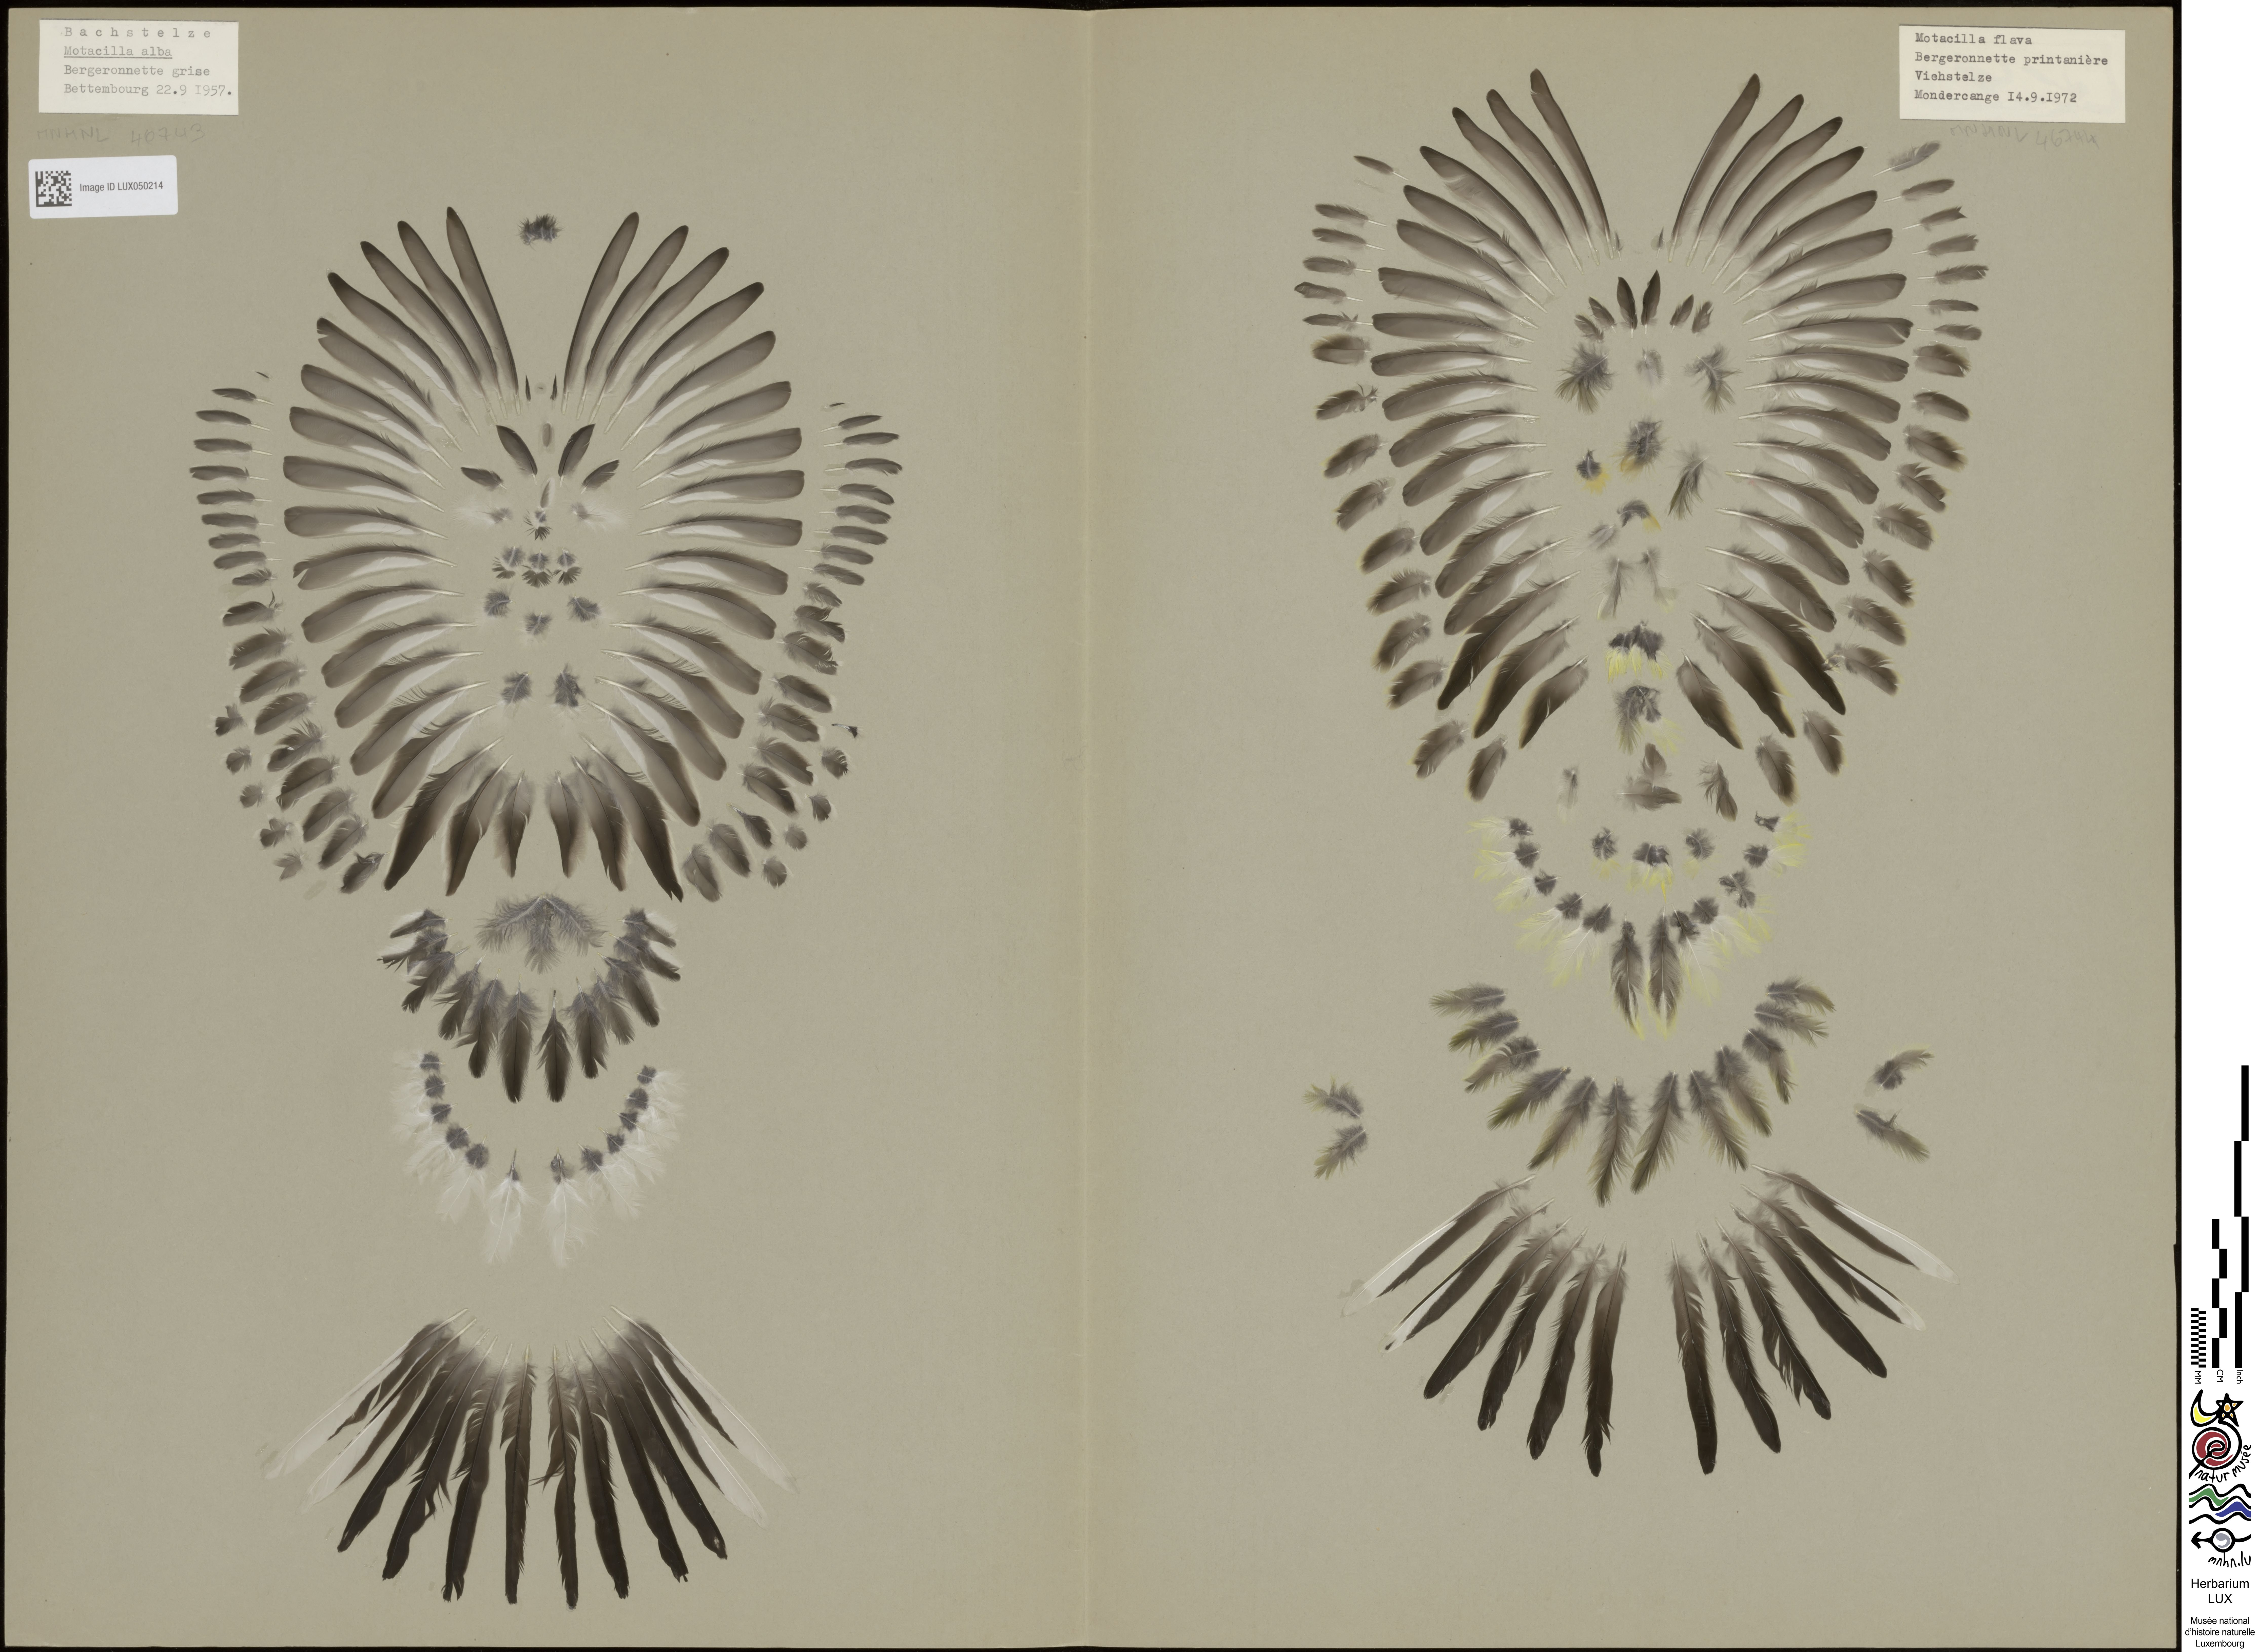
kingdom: Animalia
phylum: Chordata
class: Aves
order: Passeriformes
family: Motacillidae
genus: Motacilla
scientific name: Motacilla flava
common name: Western yellow wagtail
